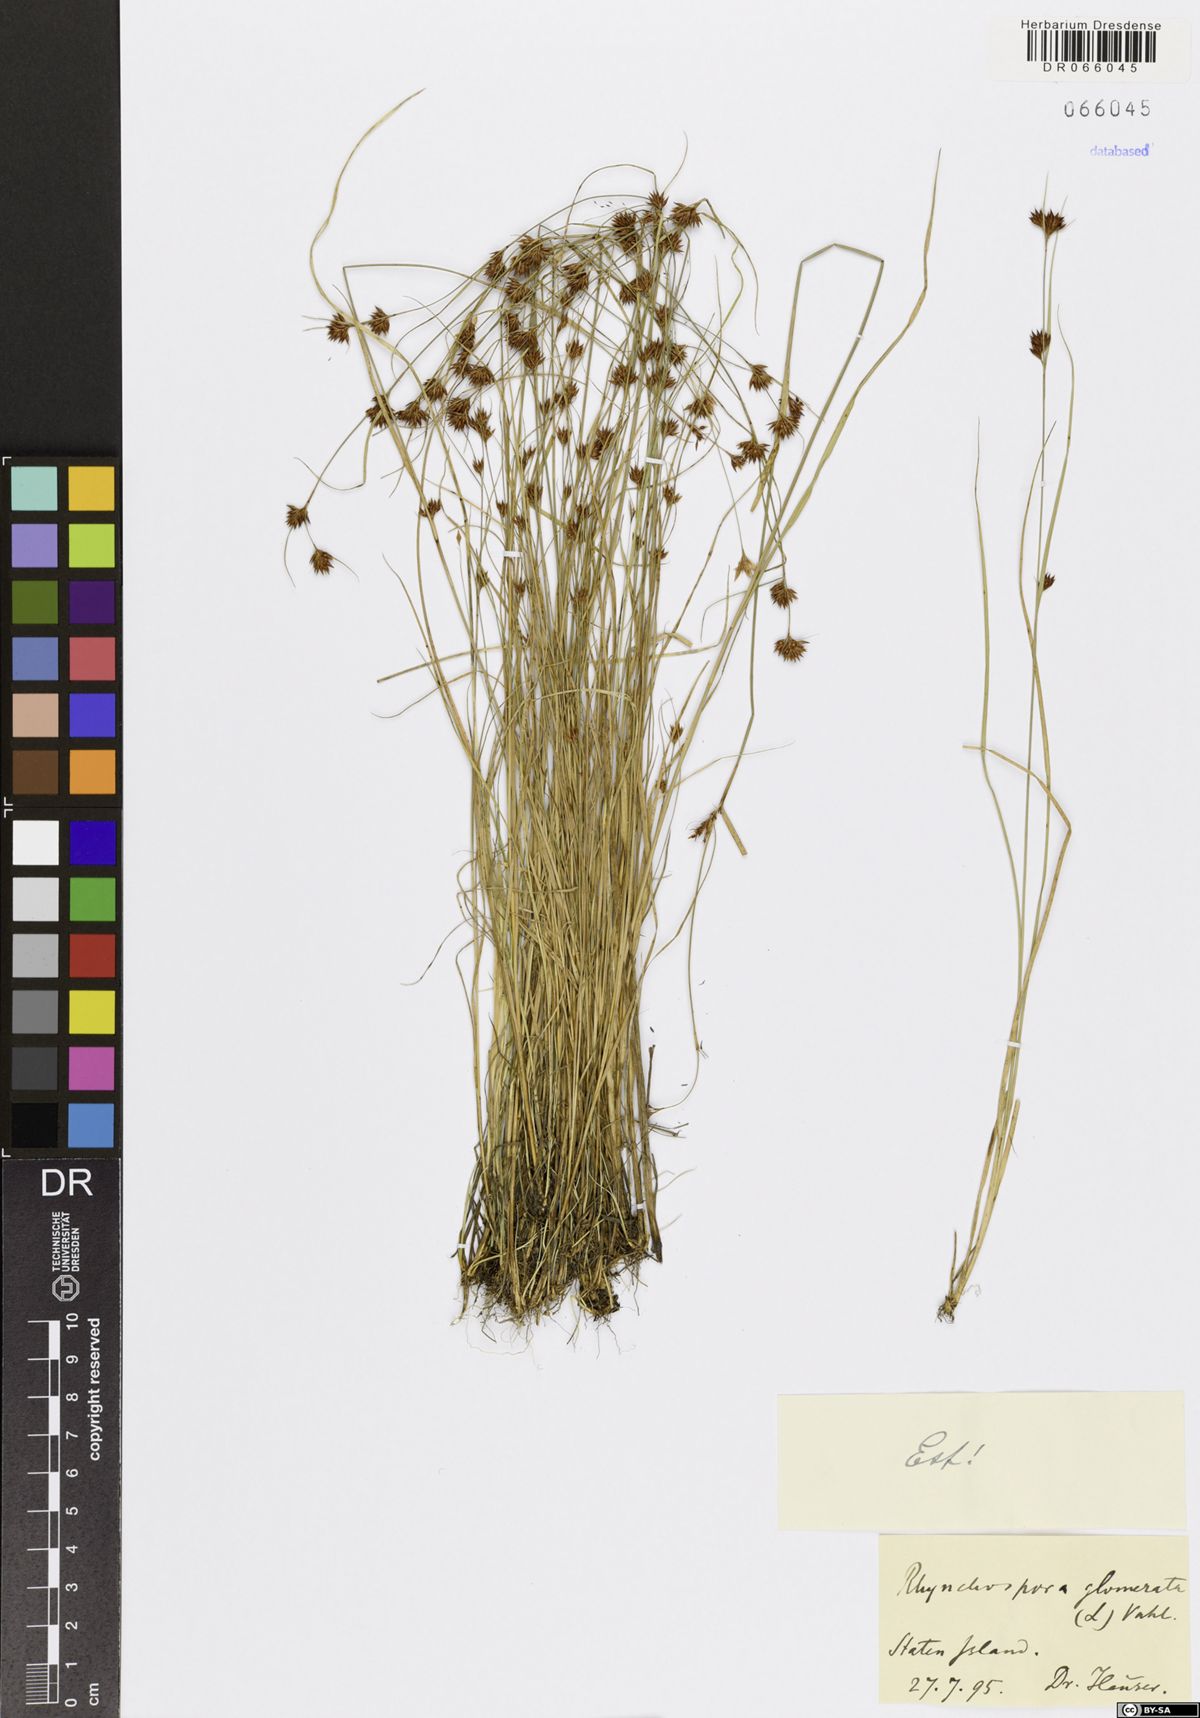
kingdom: Plantae
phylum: Tracheophyta
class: Liliopsida
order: Poales
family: Cyperaceae
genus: Rhynchospora
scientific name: Rhynchospora glomerata
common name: Cluster beak sedge
